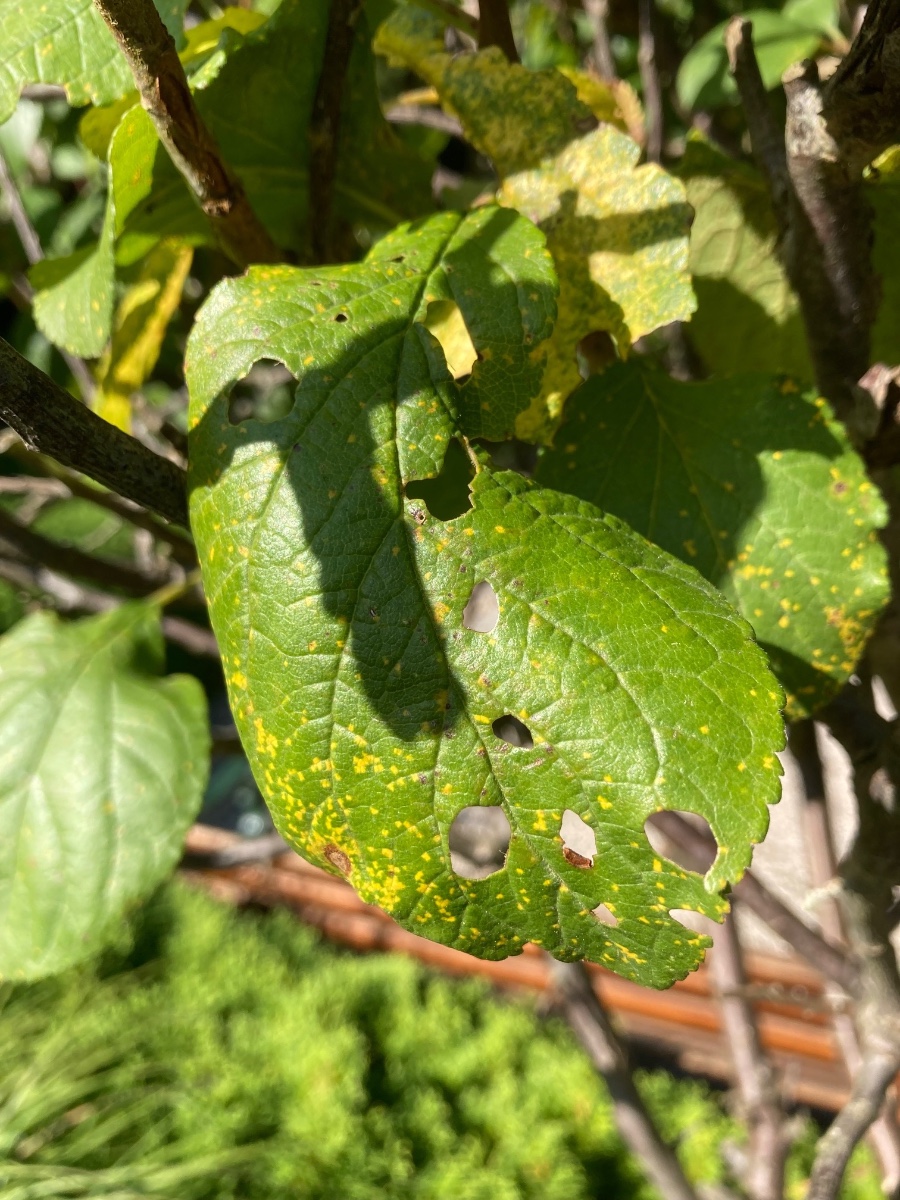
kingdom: Fungi
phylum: Basidiomycota
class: Pucciniomycetes
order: Pucciniales
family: Tranzscheliaceae
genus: Tranzschelia
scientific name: Tranzschelia discolor
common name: Plum rust
